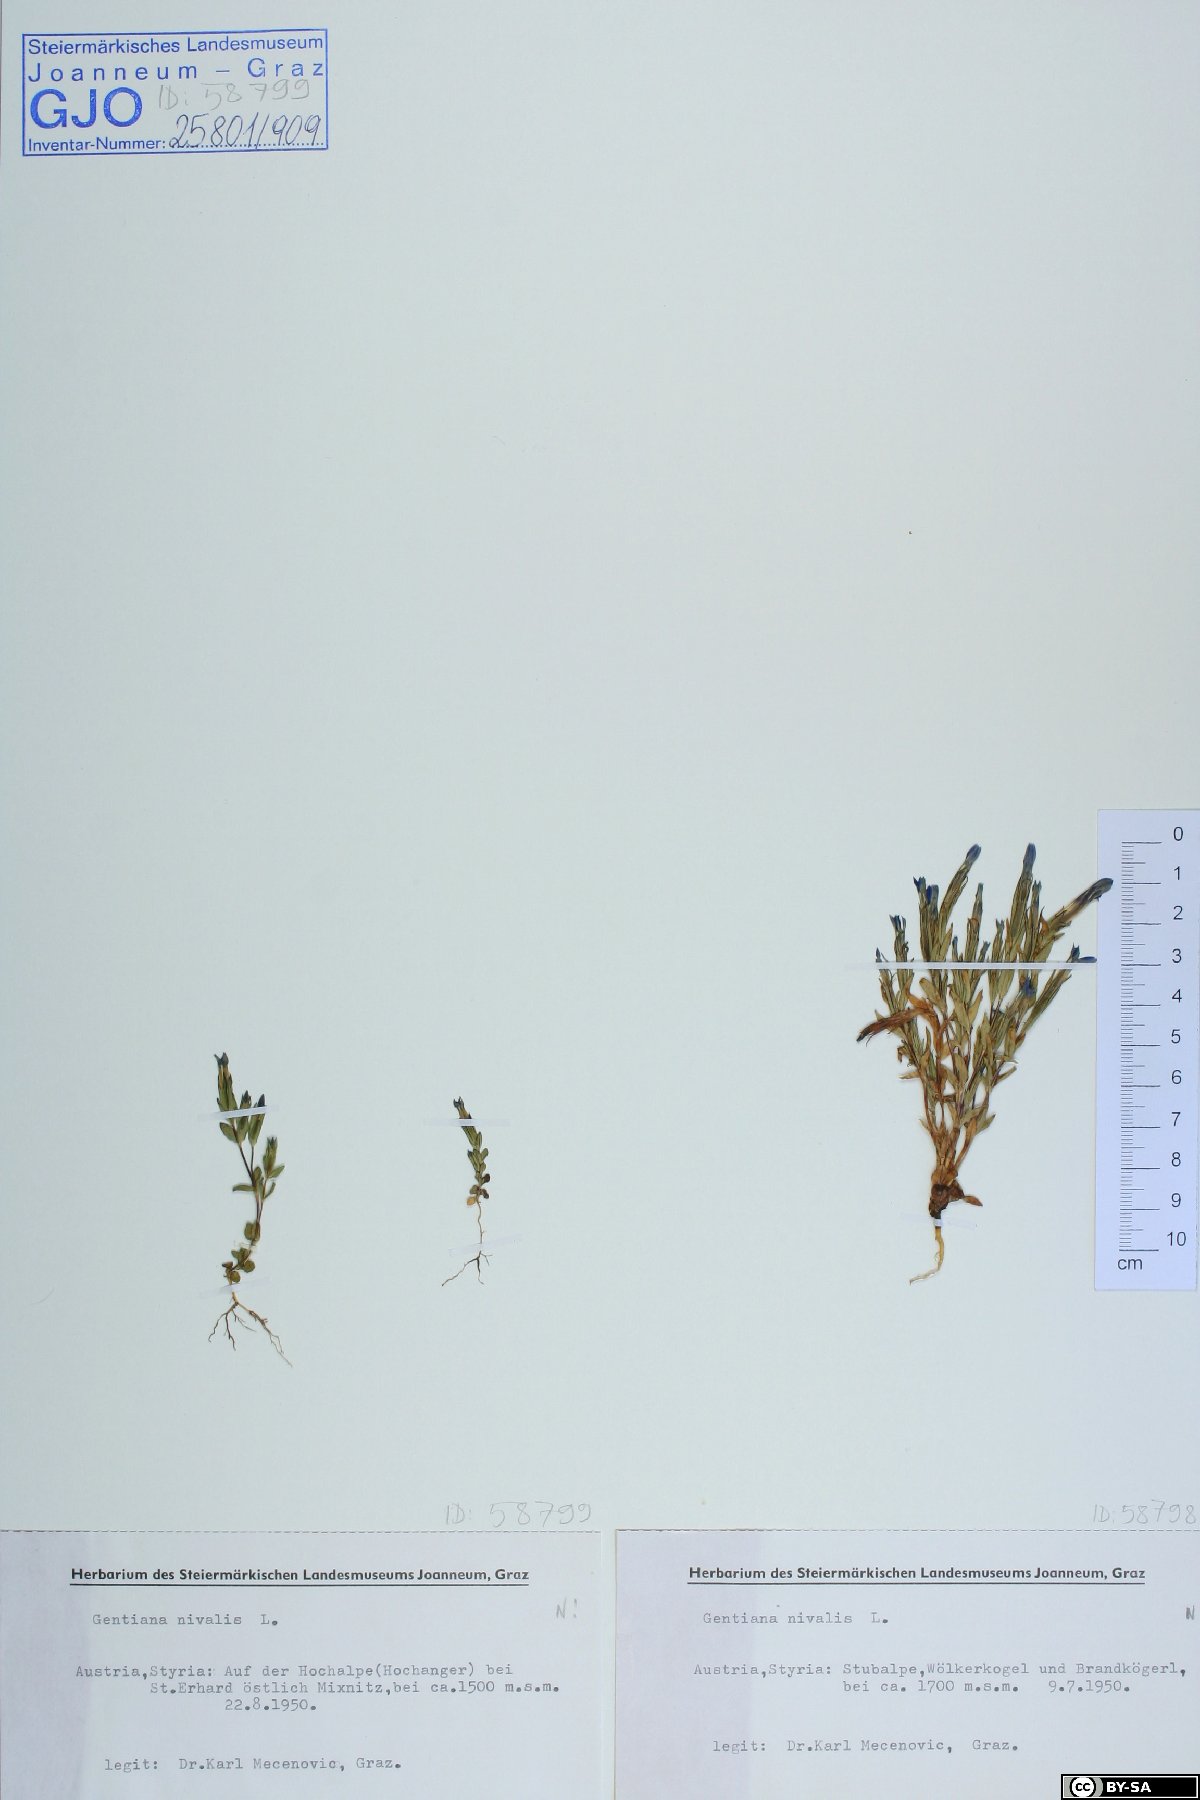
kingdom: Plantae
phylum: Tracheophyta
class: Magnoliopsida
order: Gentianales
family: Gentianaceae
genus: Gentiana
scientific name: Gentiana nivalis
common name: Alpine gentian
